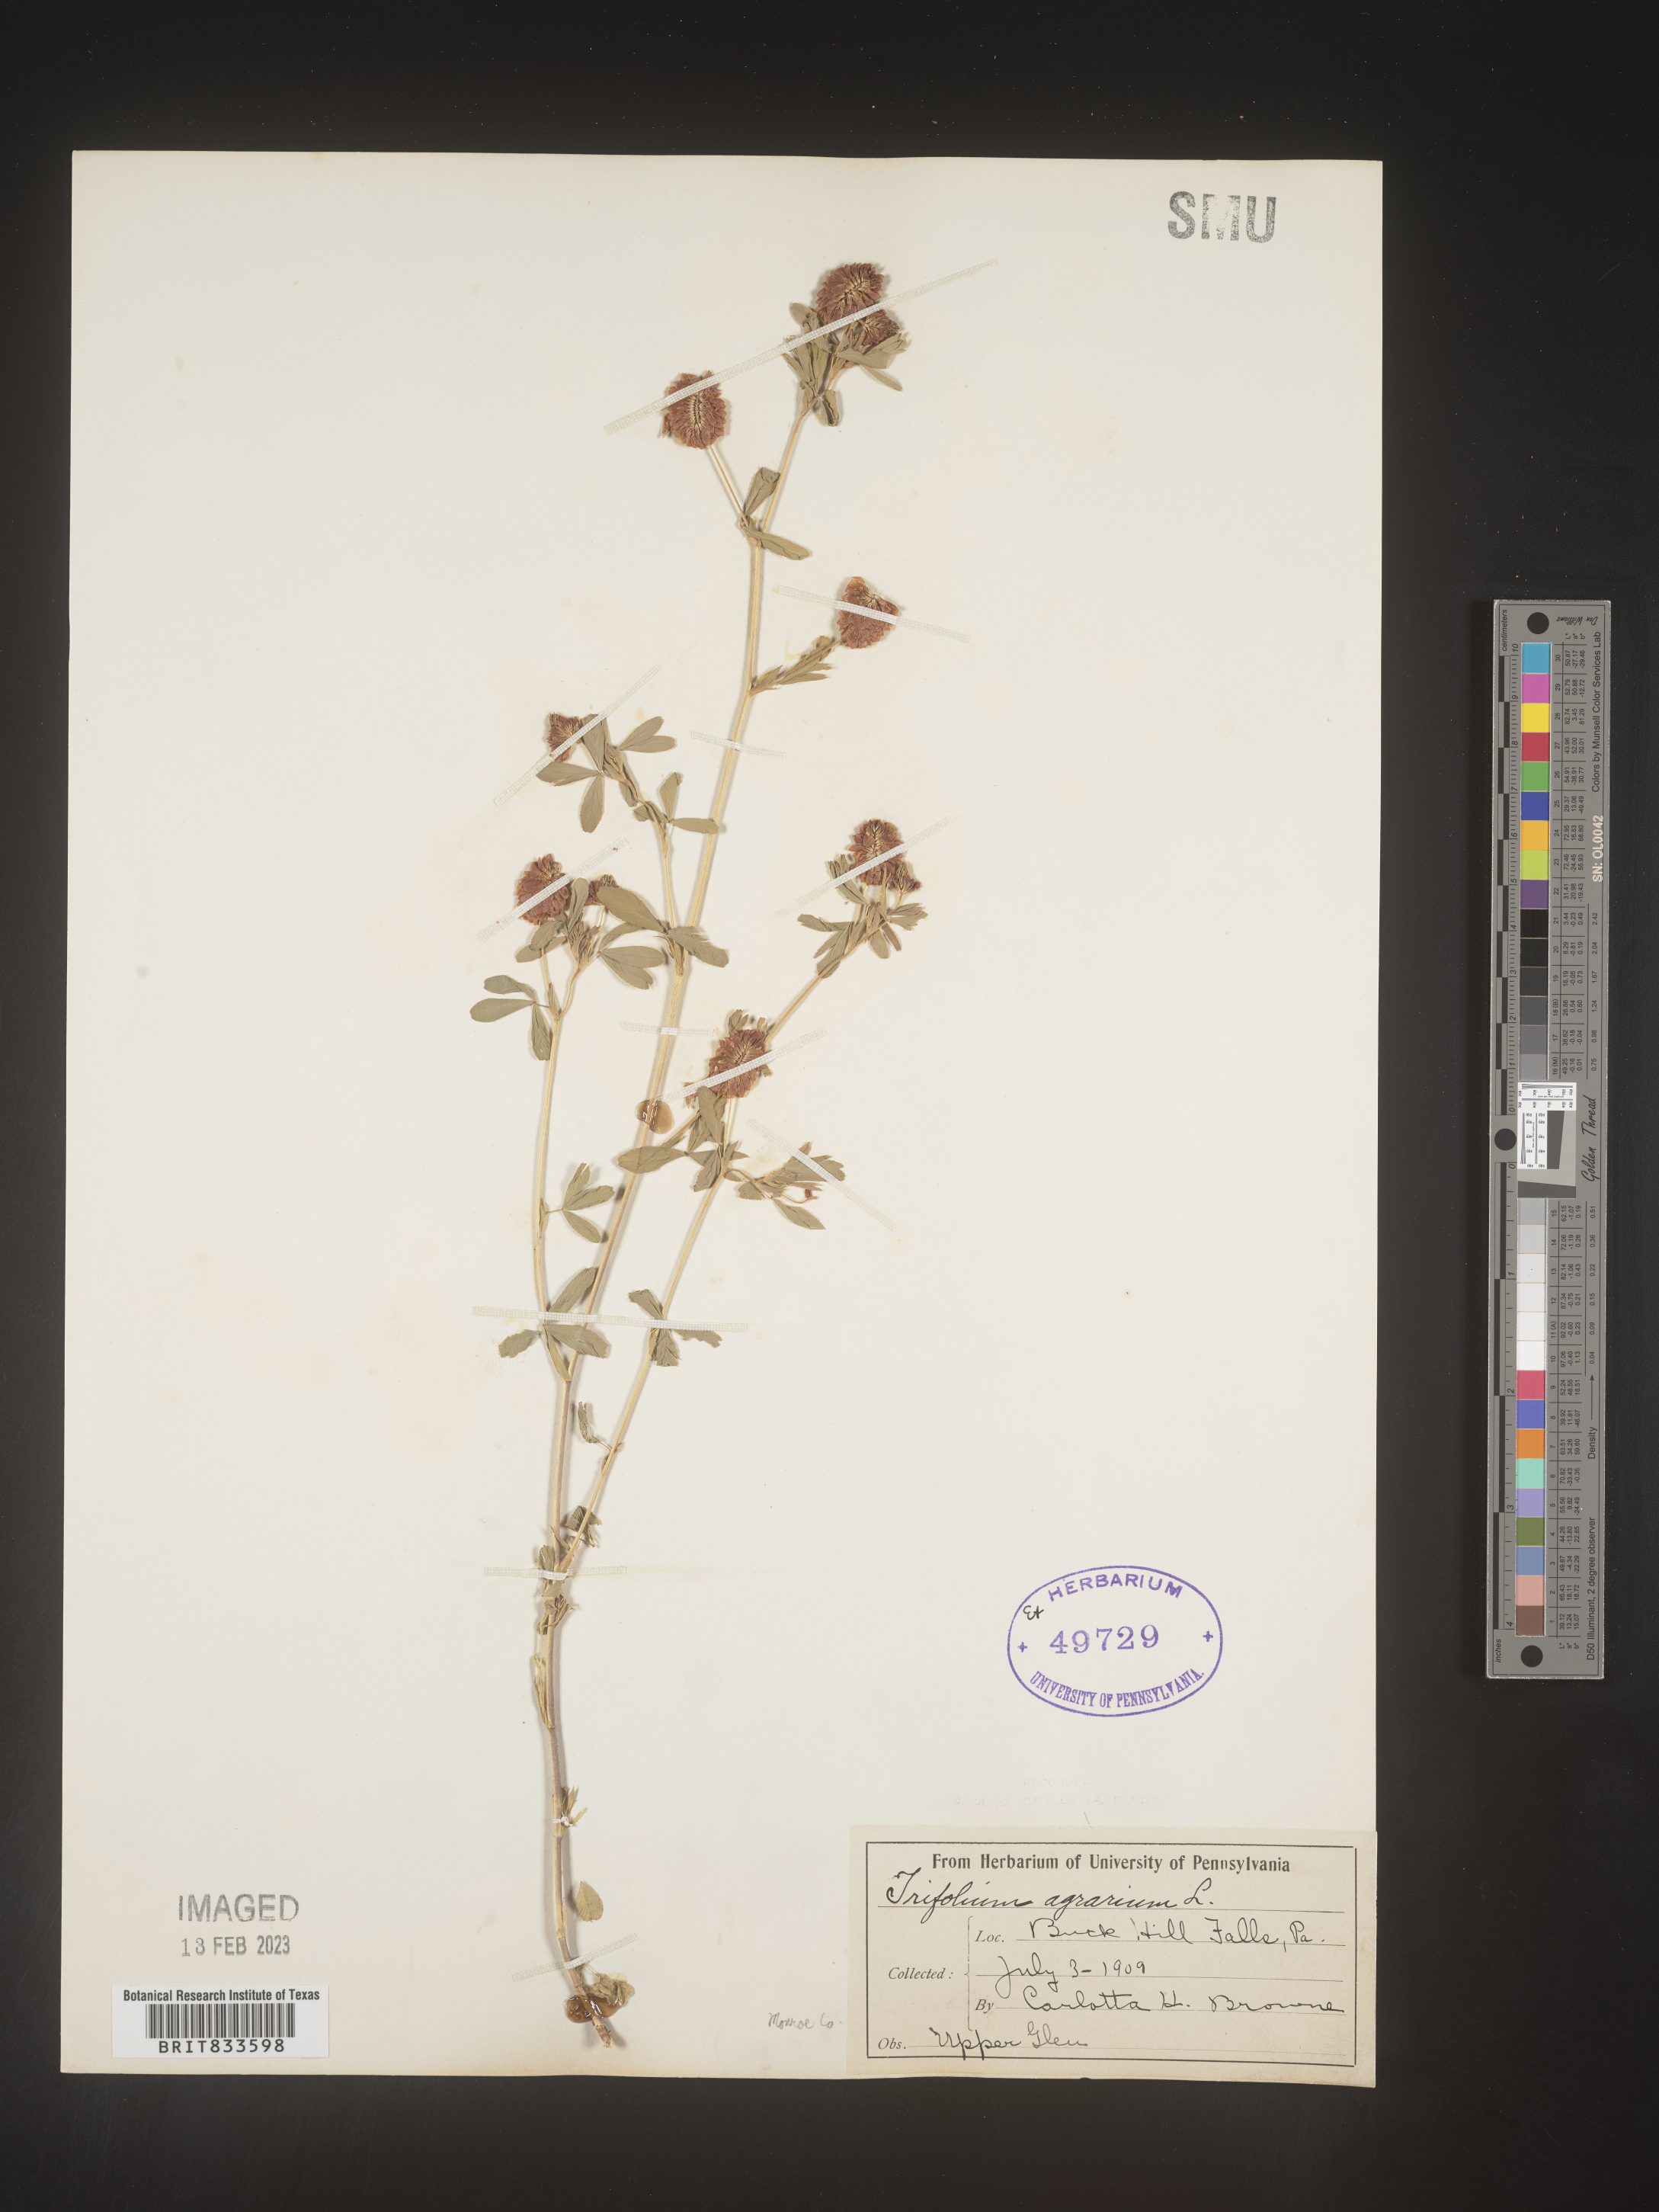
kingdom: Plantae
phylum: Tracheophyta
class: Magnoliopsida
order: Fabales
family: Fabaceae
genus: Trifolium
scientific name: Trifolium agrarium
